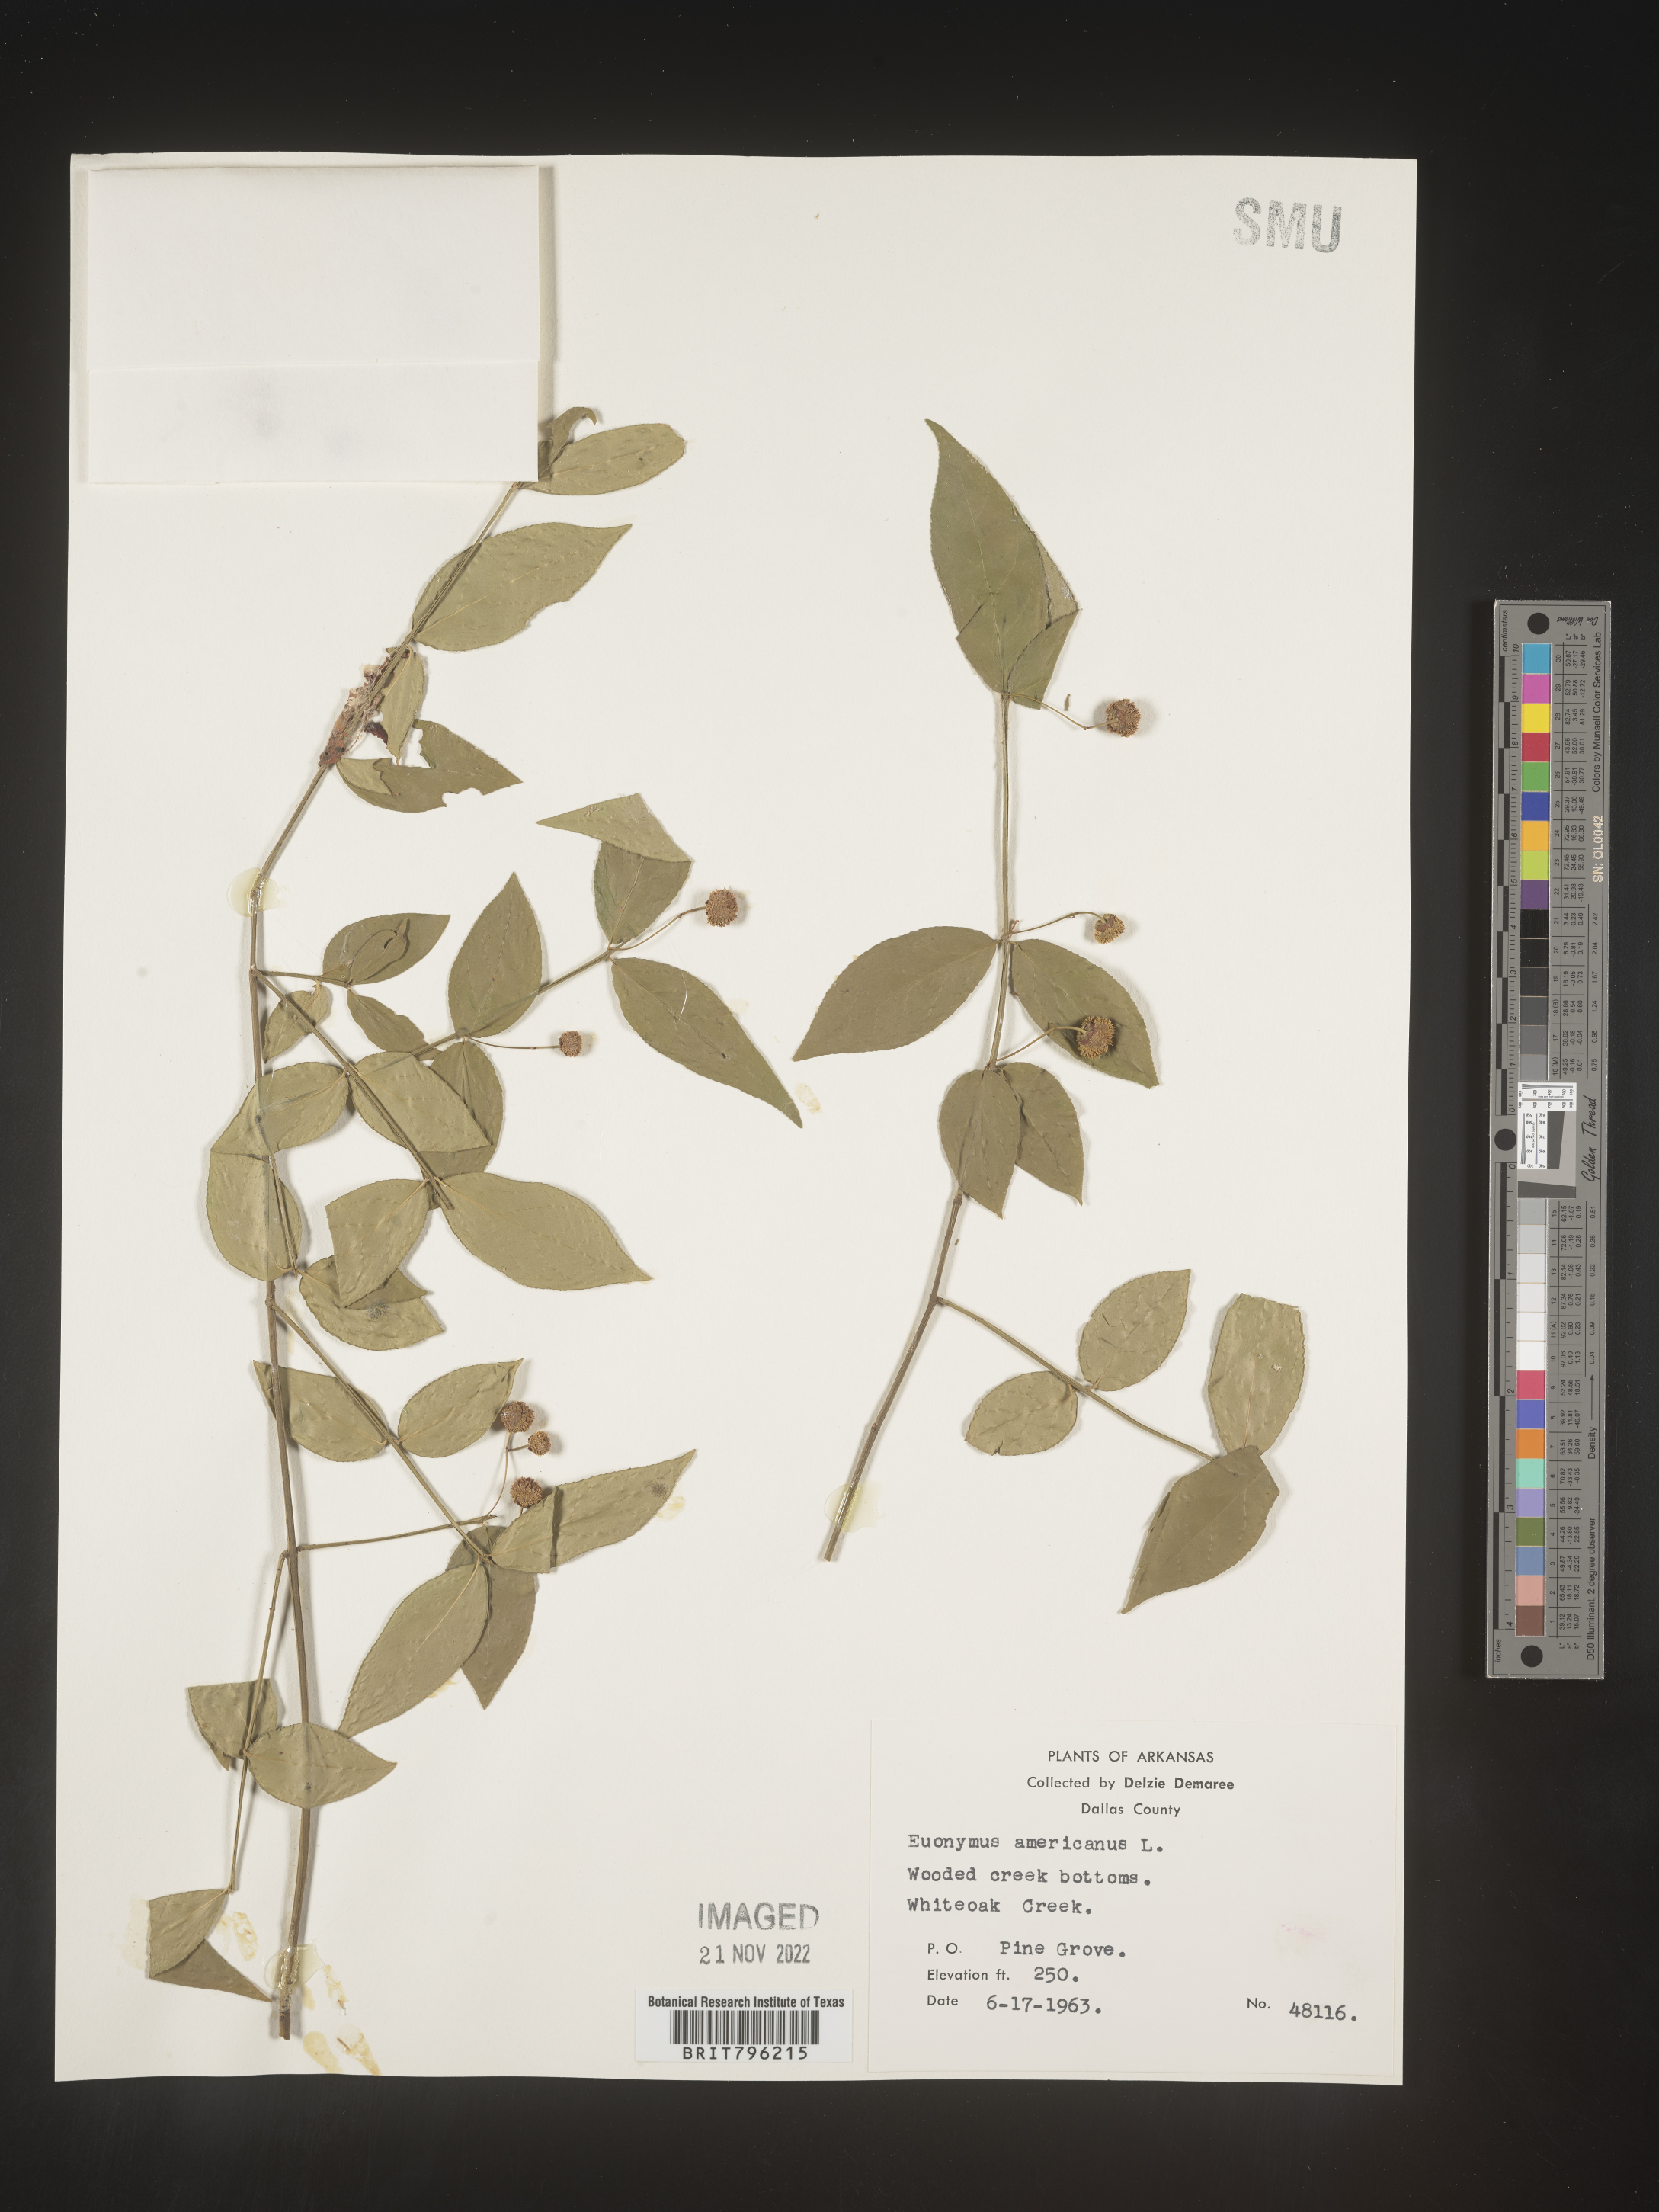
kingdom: Plantae
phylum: Tracheophyta
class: Magnoliopsida
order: Celastrales
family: Celastraceae
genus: Euonymus
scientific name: Euonymus americanus
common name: Bursting-heart
